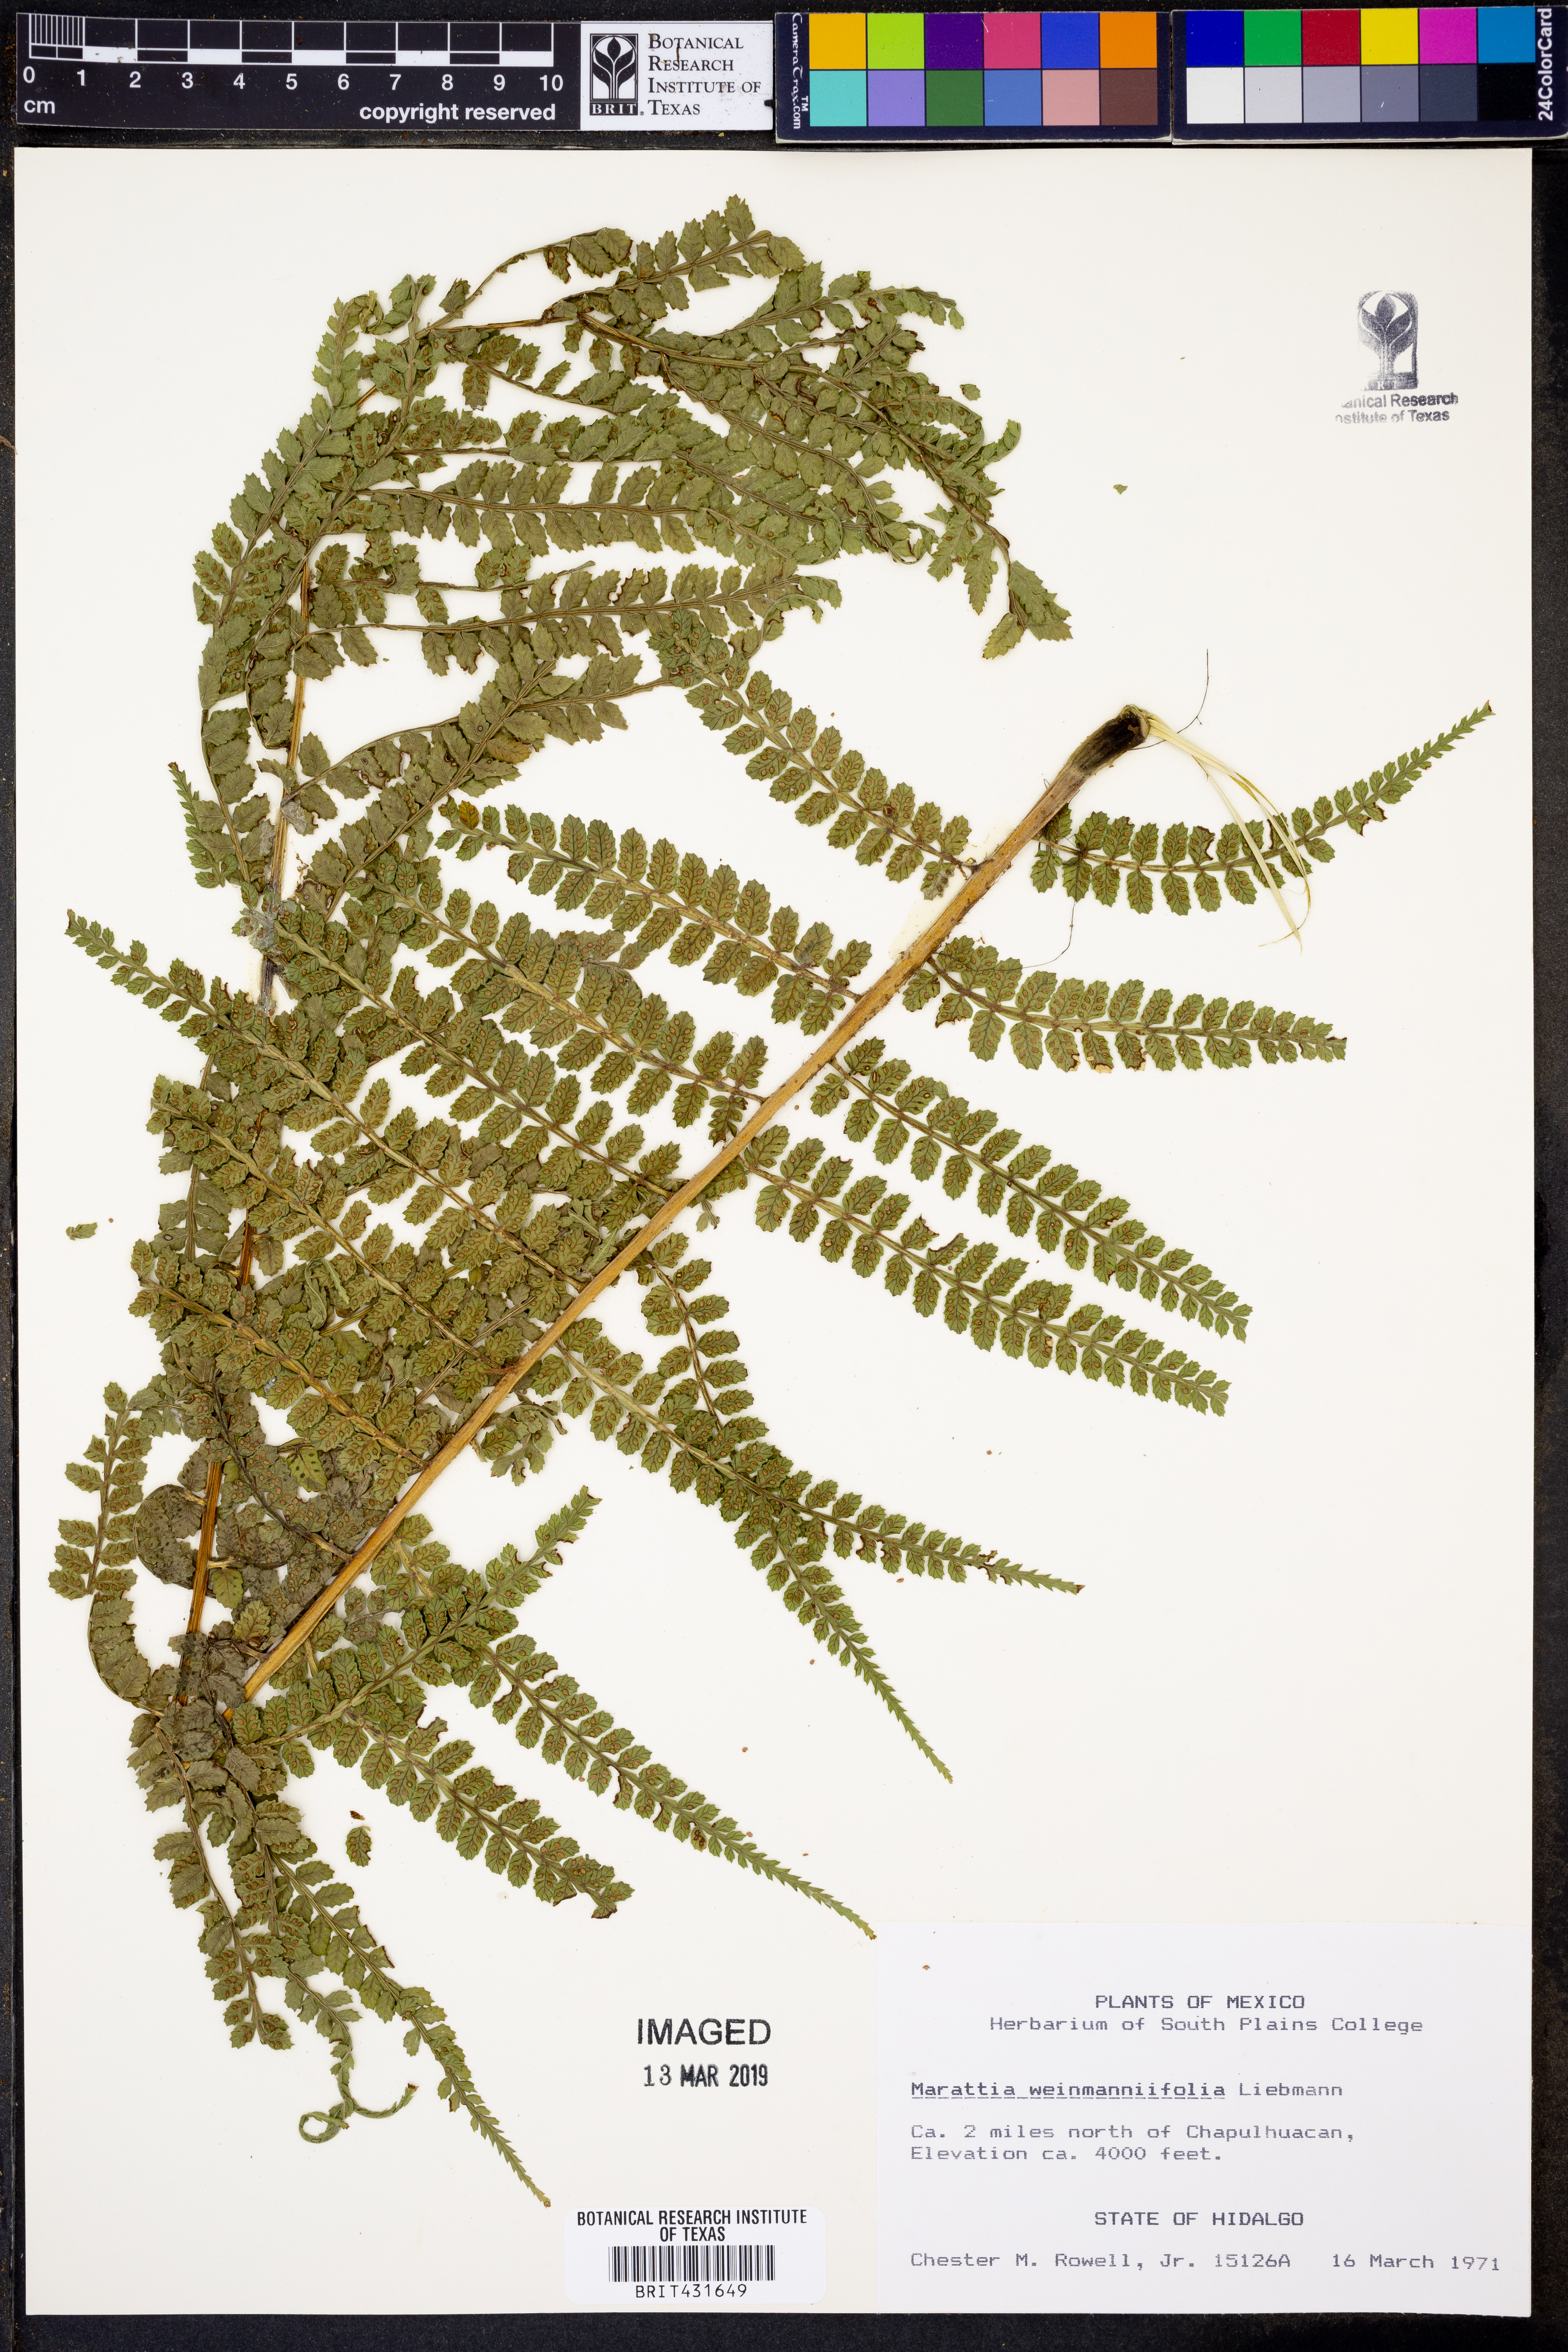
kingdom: Plantae
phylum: Tracheophyta
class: Polypodiopsida
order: Marattiales
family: Marattiaceae
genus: Marattia
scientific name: Marattia weinmanniifolia
